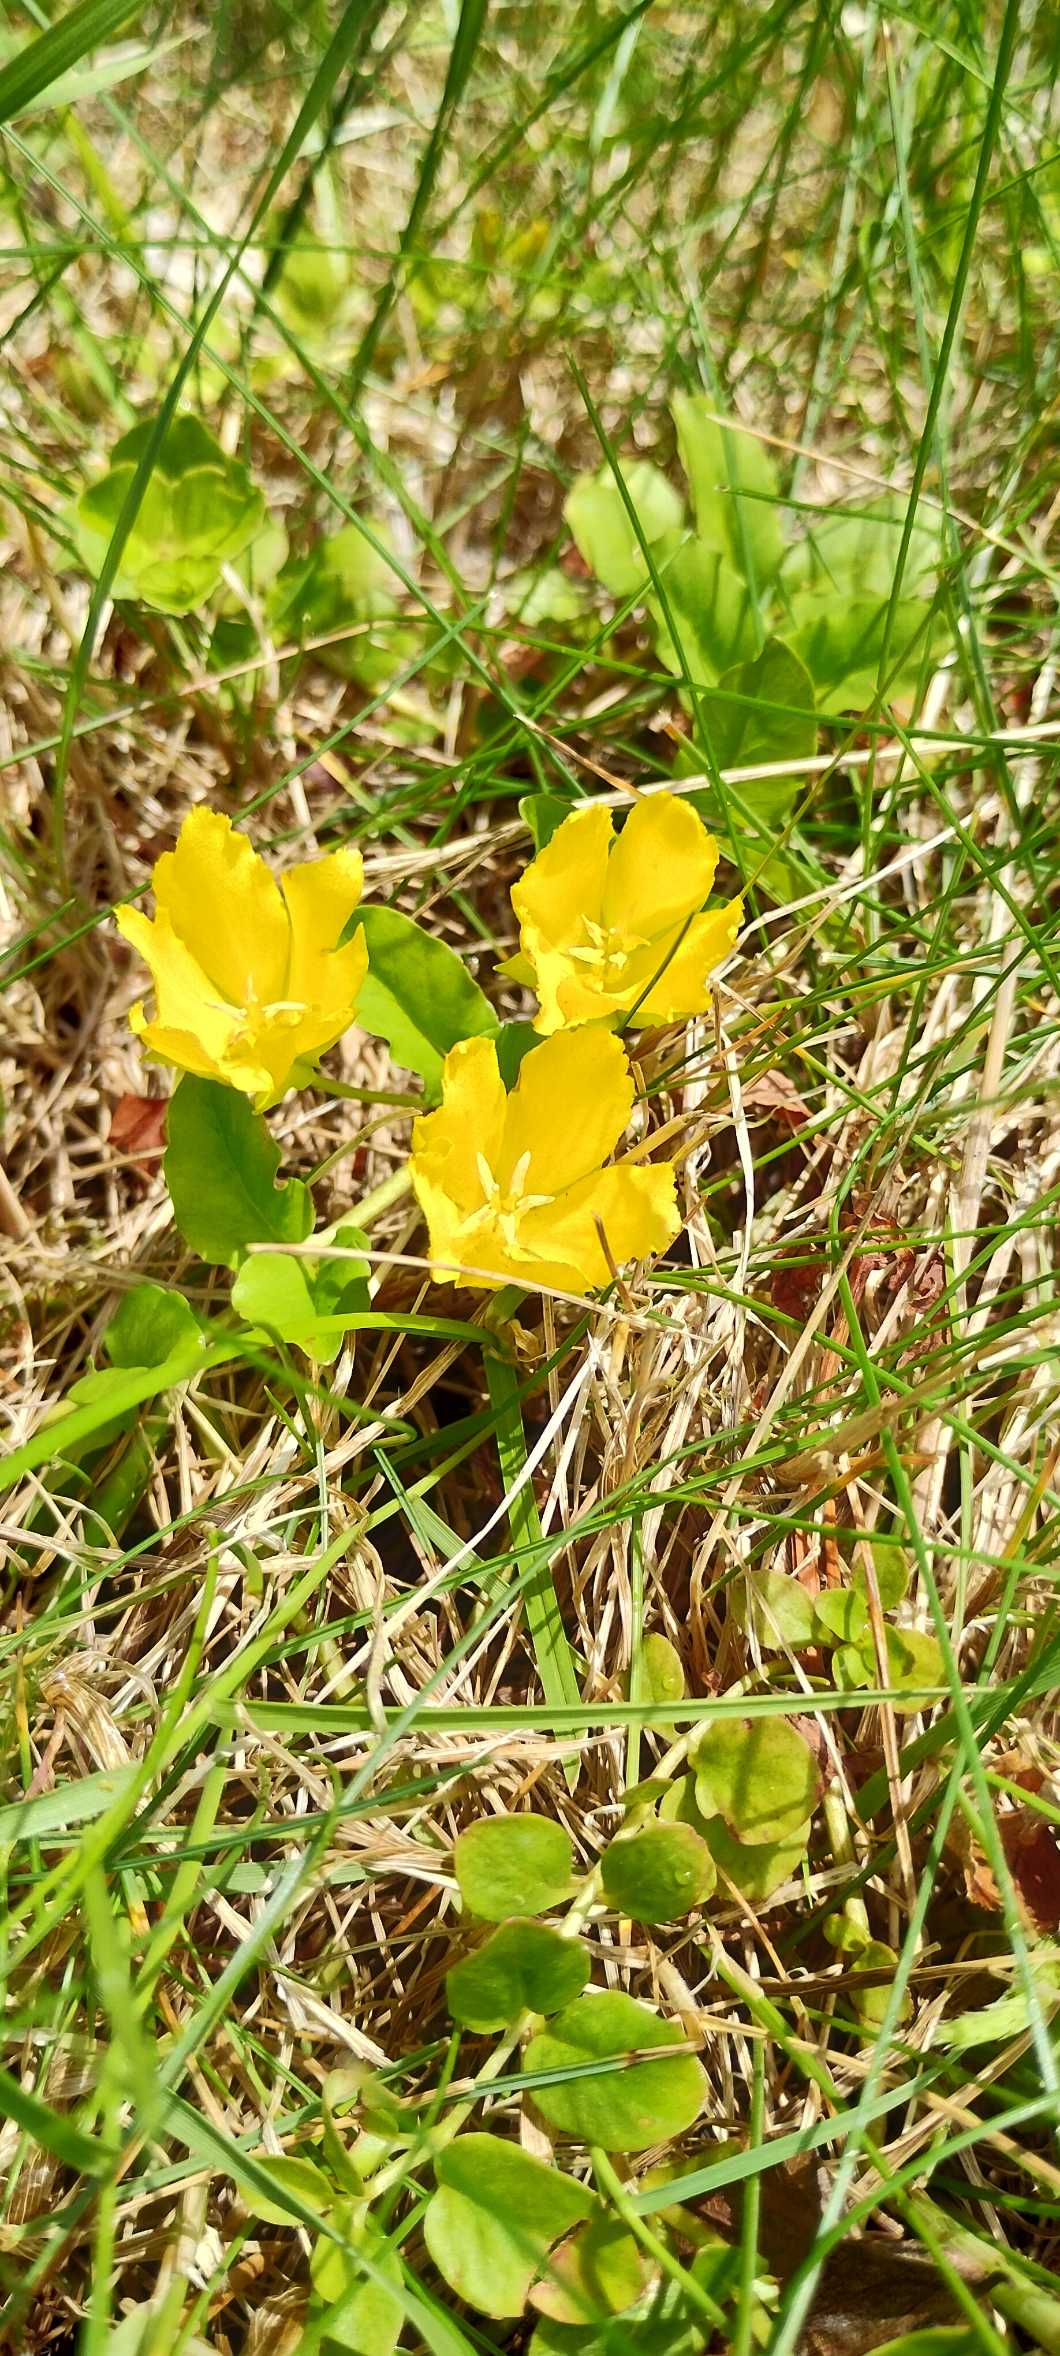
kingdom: Plantae
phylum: Tracheophyta
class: Magnoliopsida
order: Ericales
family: Primulaceae
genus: Lysimachia
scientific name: Lysimachia nummularia
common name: Pengebladet fredløs
